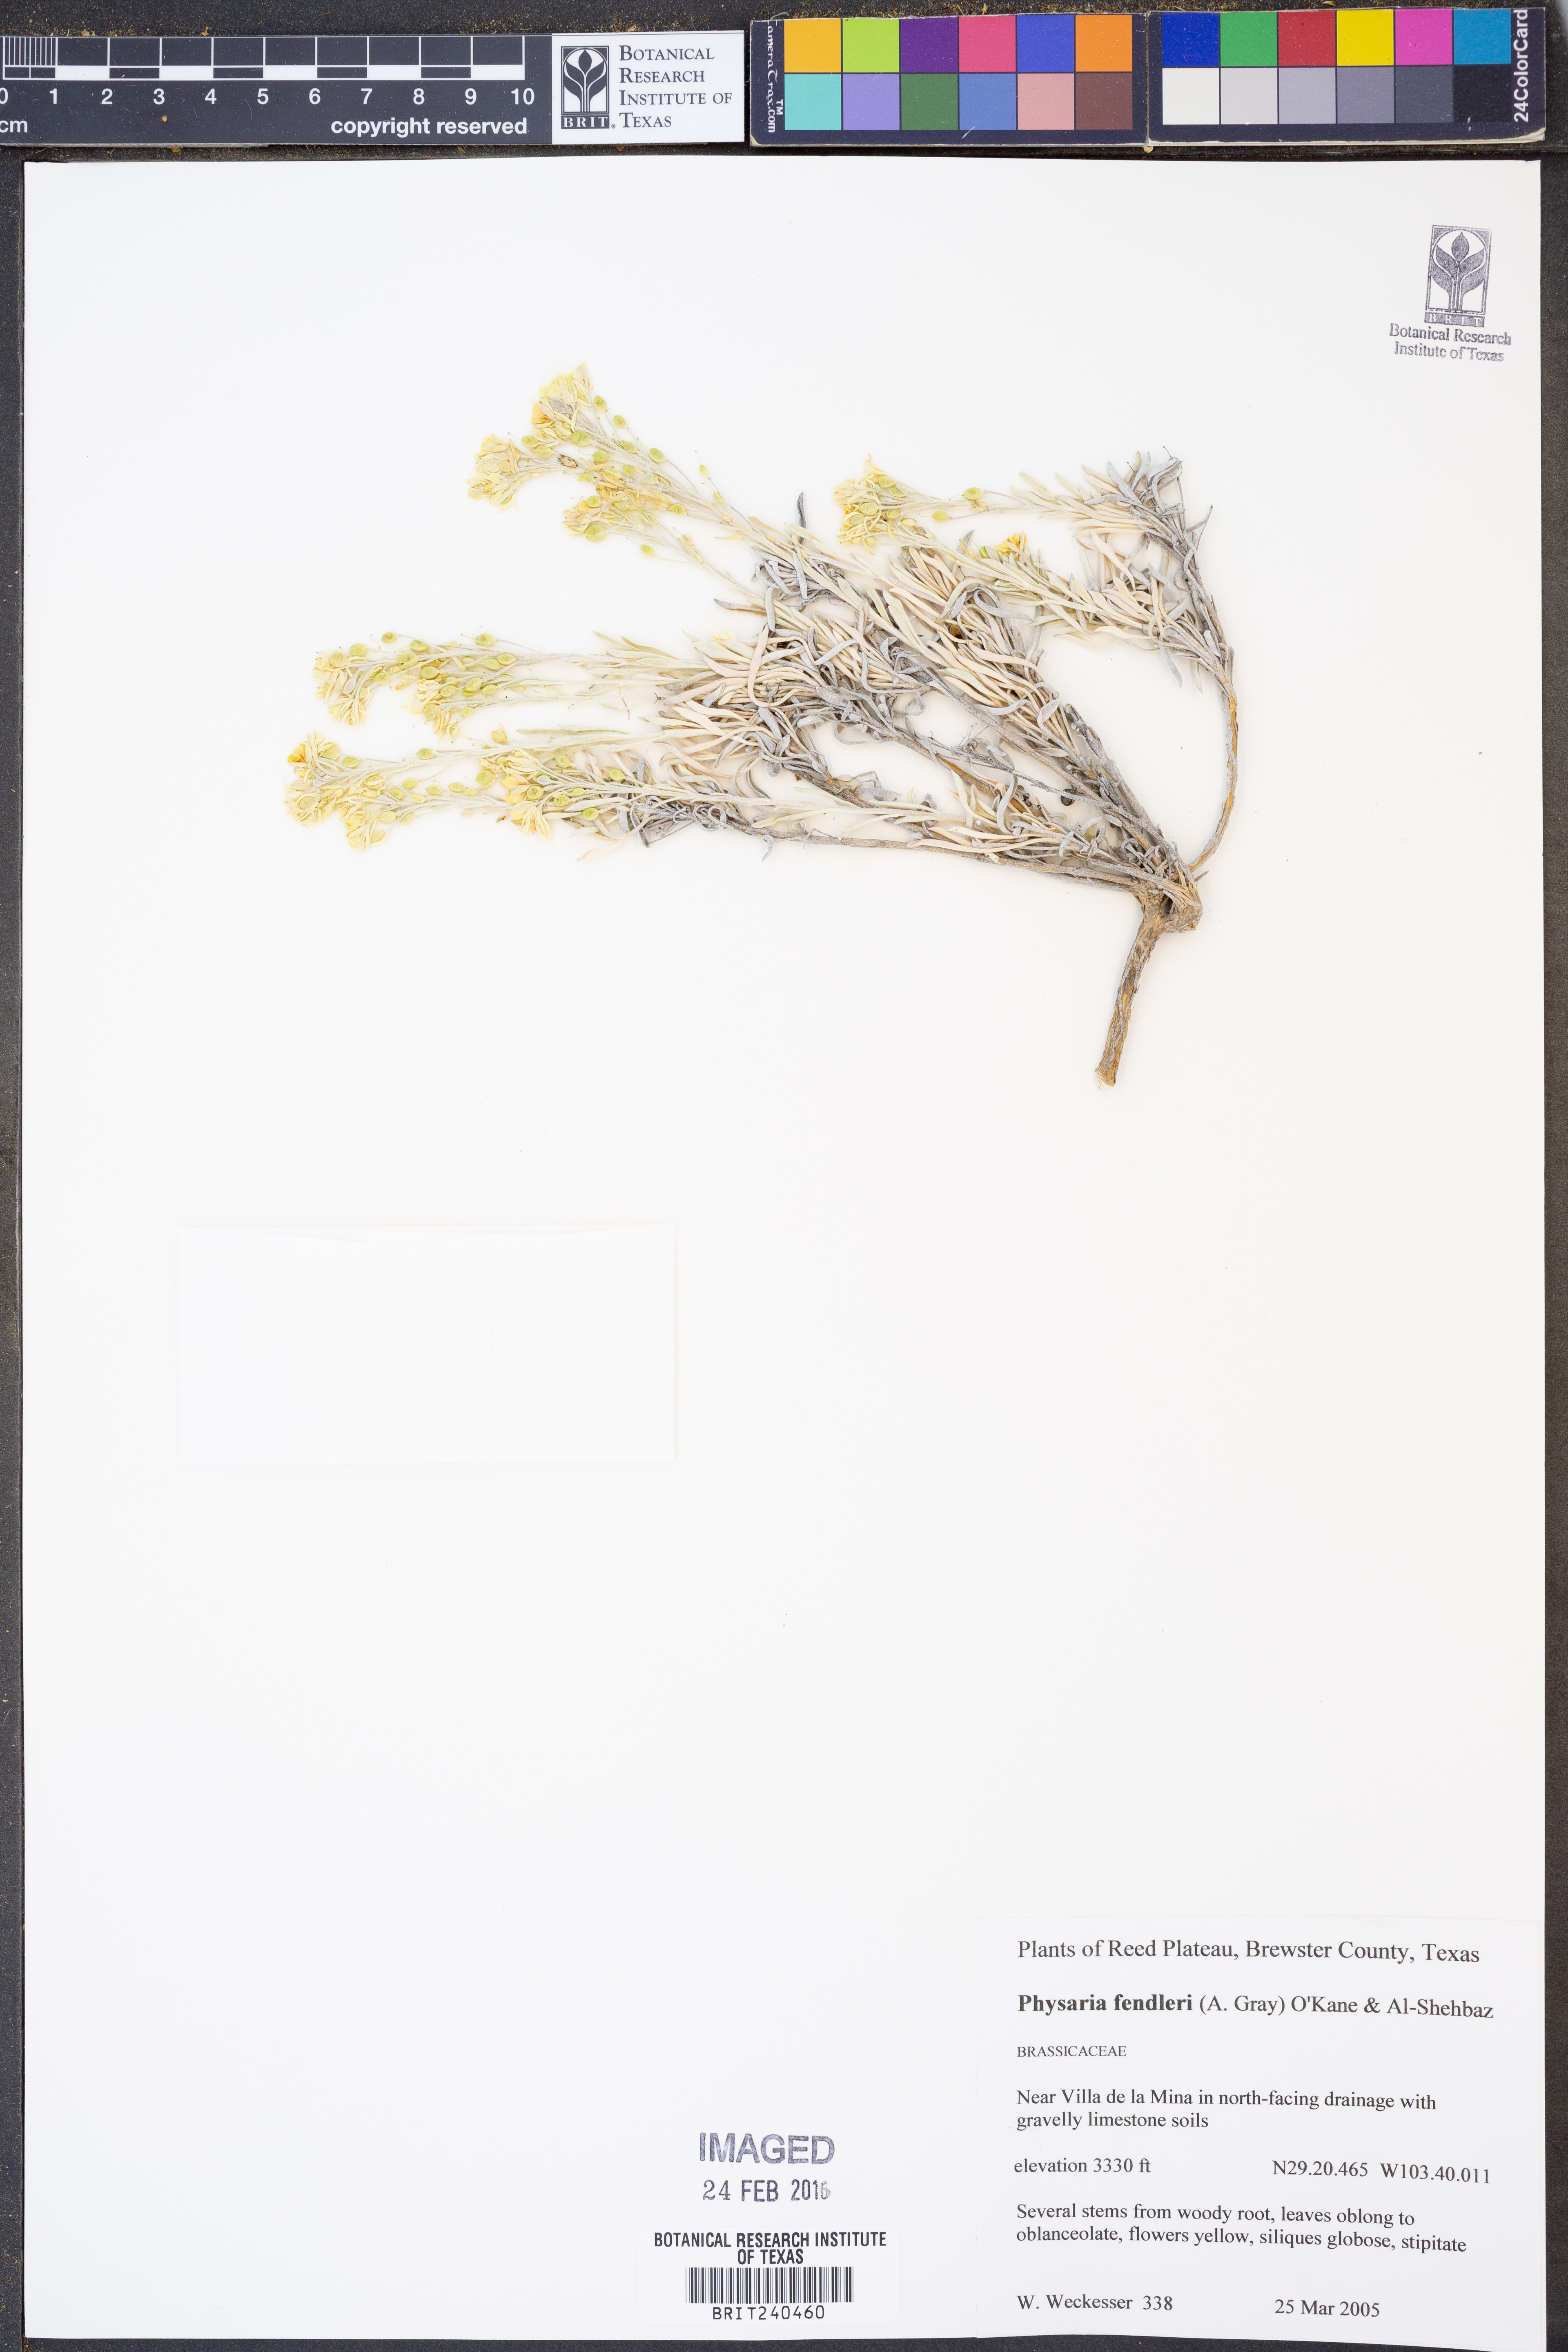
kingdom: Plantae
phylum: Tracheophyta
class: Magnoliopsida
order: Brassicales
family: Brassicaceae
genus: Physaria
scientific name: Physaria fendleri
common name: Fendler's bladderpod
